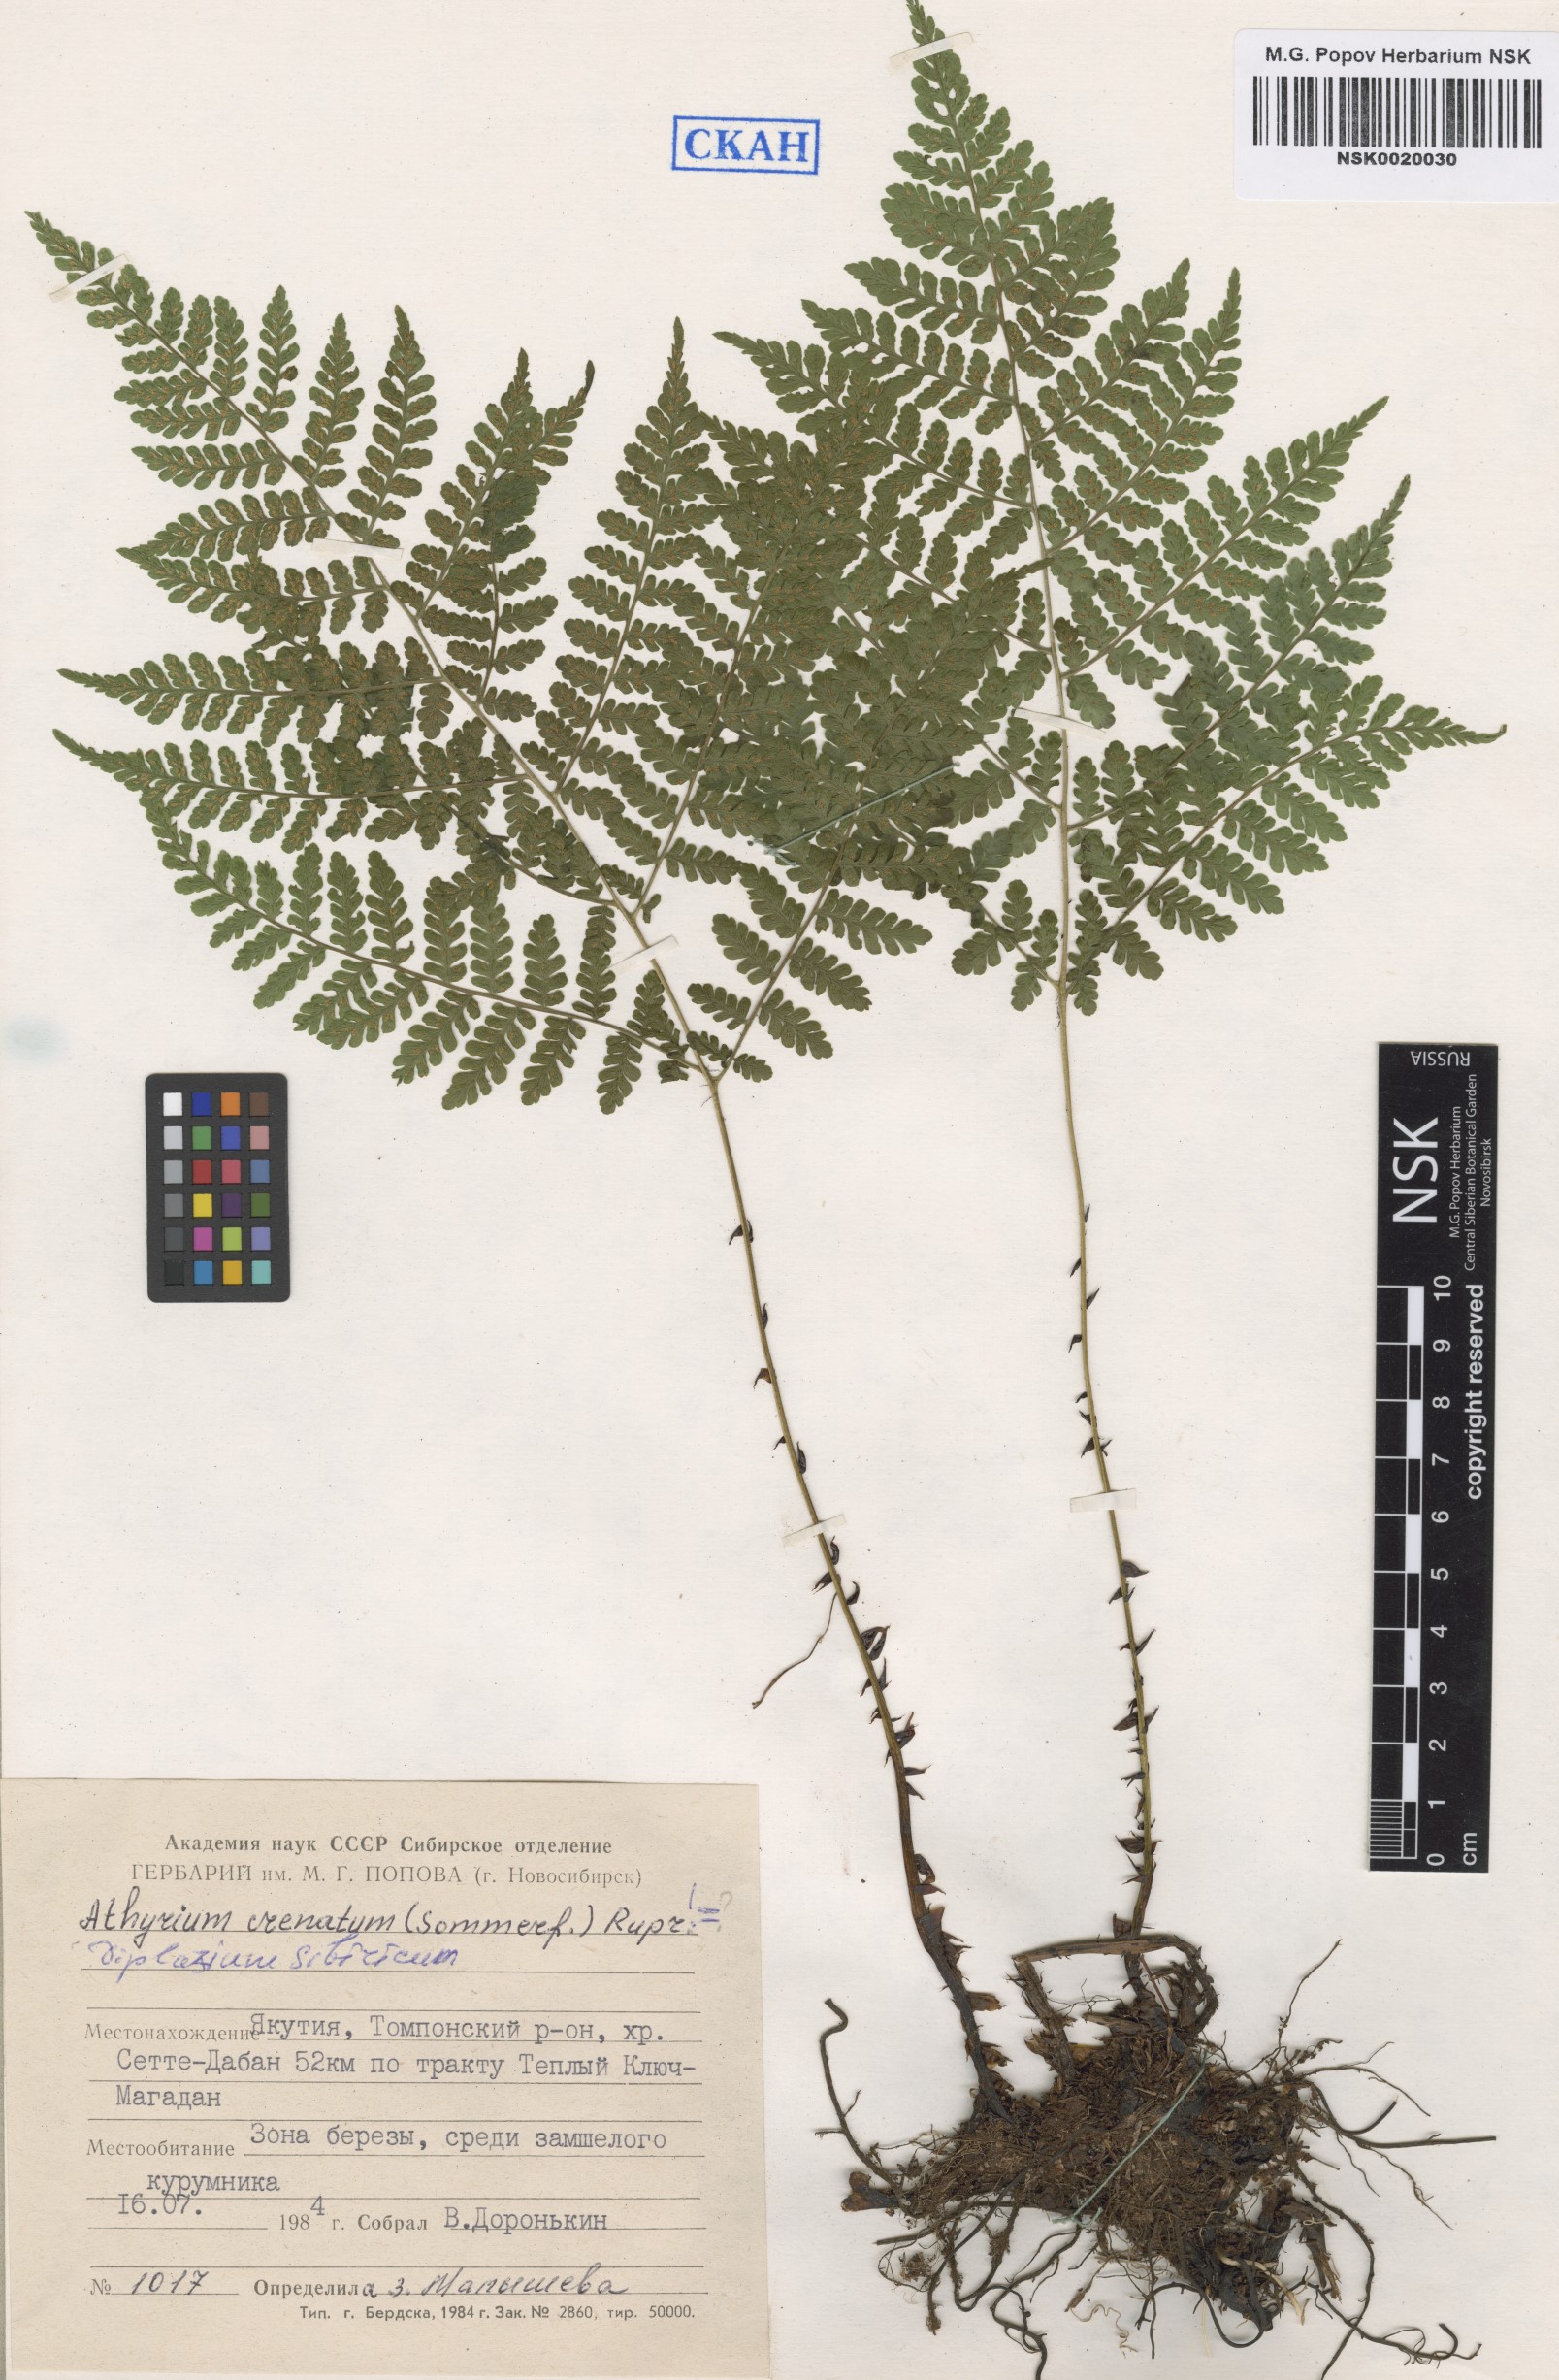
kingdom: Plantae
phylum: Tracheophyta
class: Polypodiopsida
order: Polypodiales
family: Athyriaceae
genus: Diplazium
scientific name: Diplazium sibiricum
